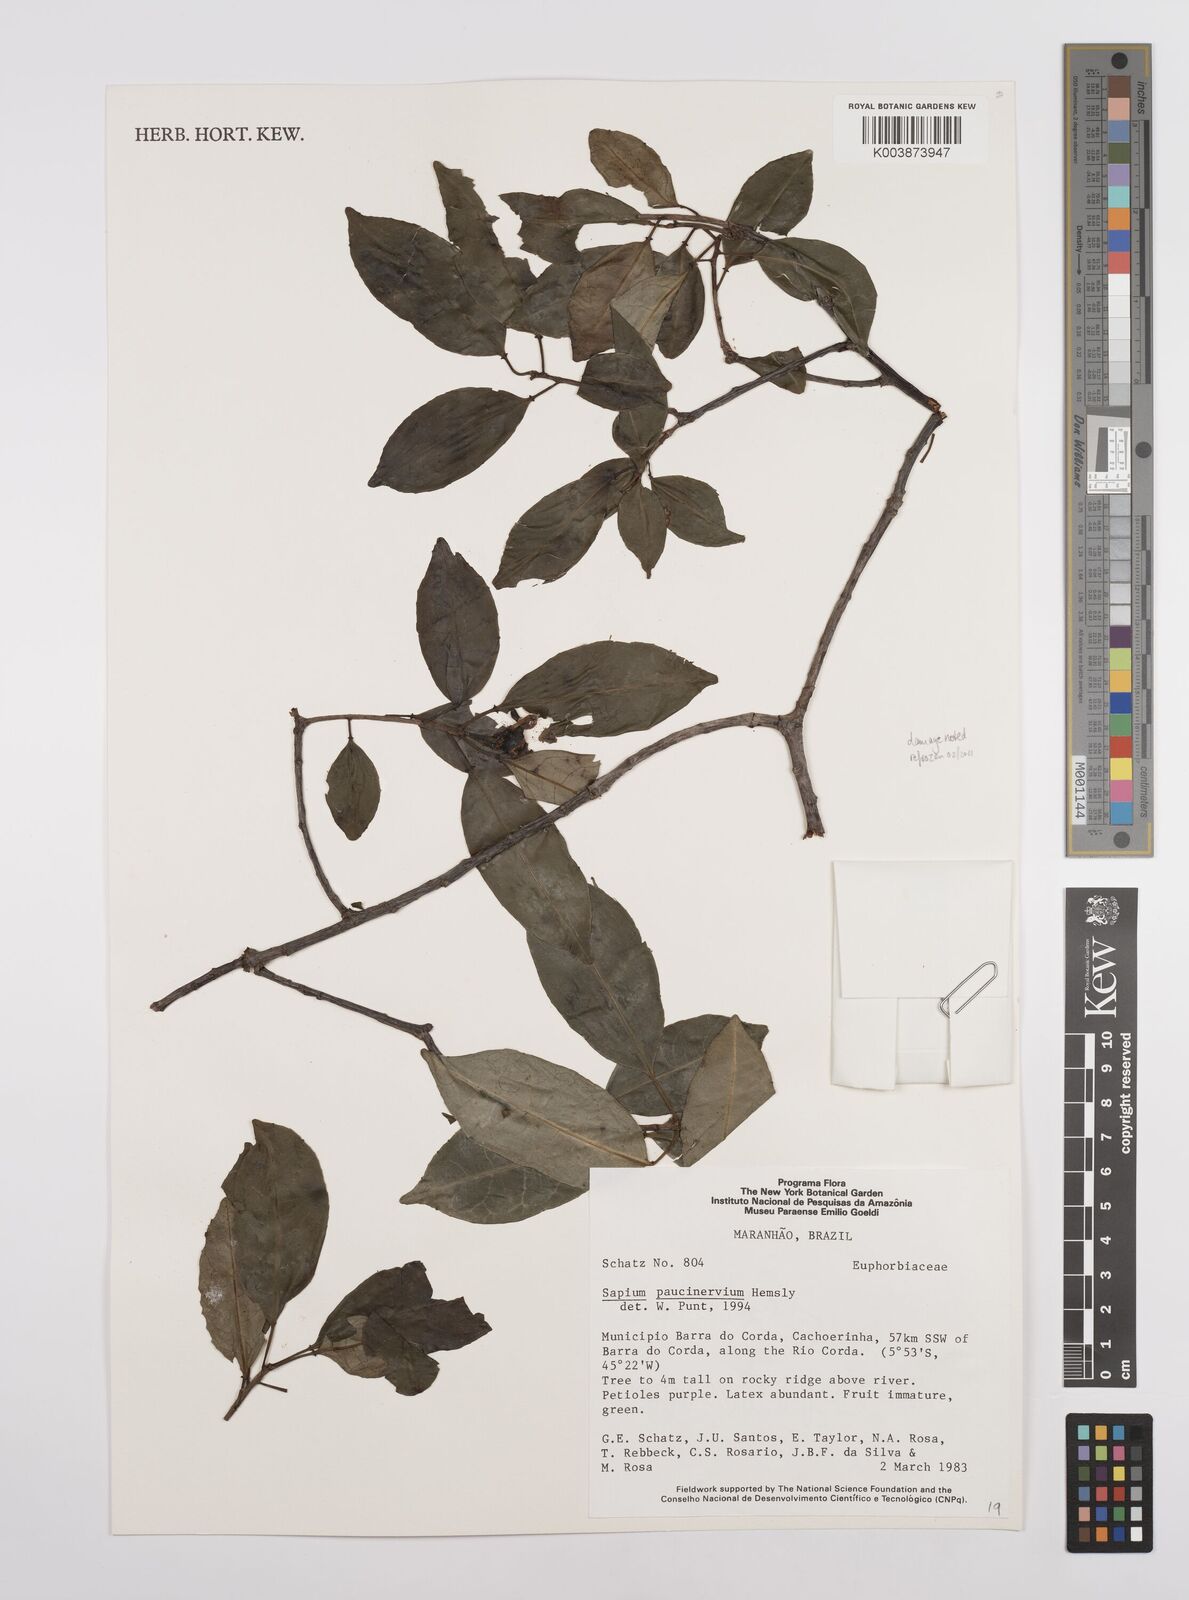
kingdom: Plantae
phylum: Tracheophyta
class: Magnoliopsida
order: Malpighiales
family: Euphorbiaceae
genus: Sapium
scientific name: Sapium paucinervium
